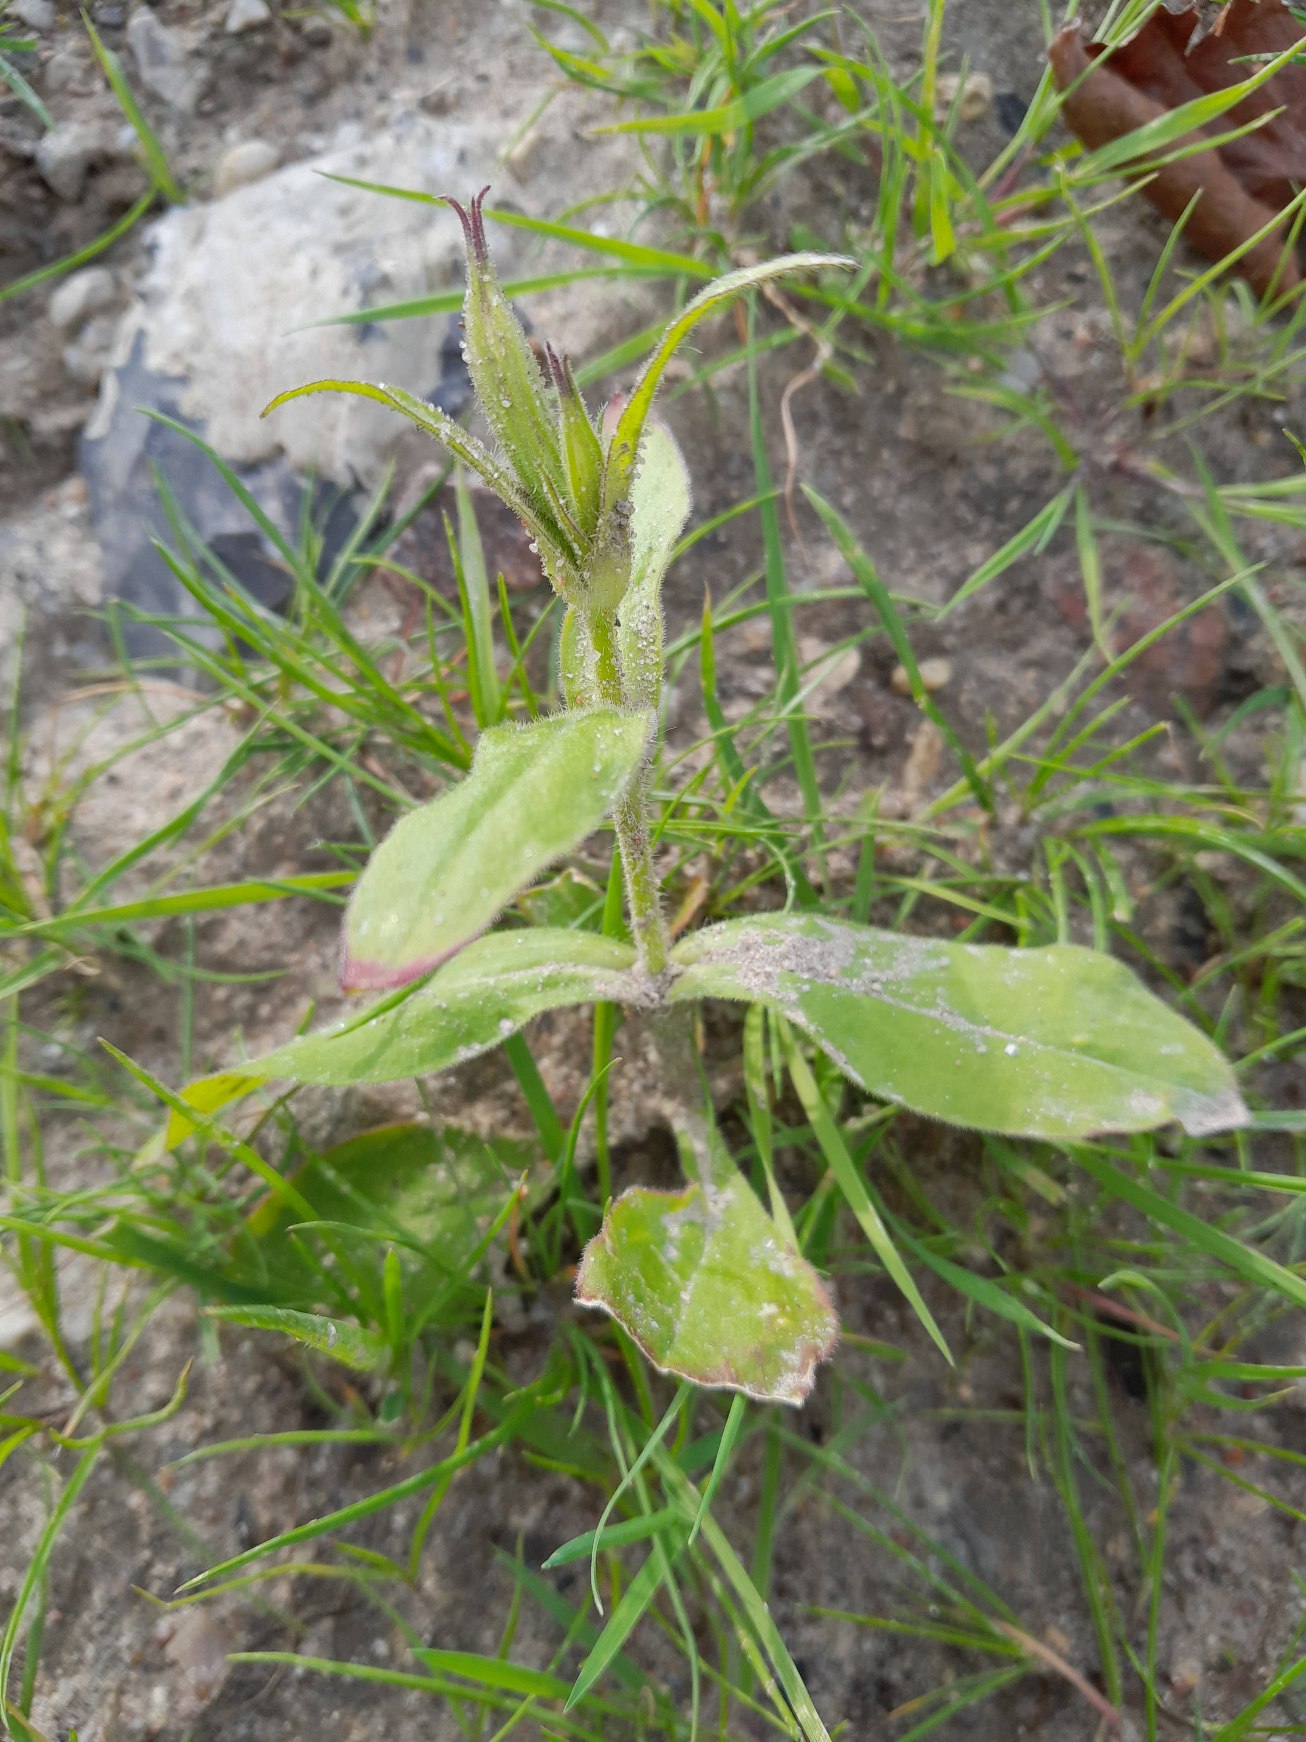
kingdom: Plantae
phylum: Tracheophyta
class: Magnoliopsida
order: Caryophyllales
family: Caryophyllaceae
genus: Silene
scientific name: Silene noctiflora
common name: Nat-limurt
